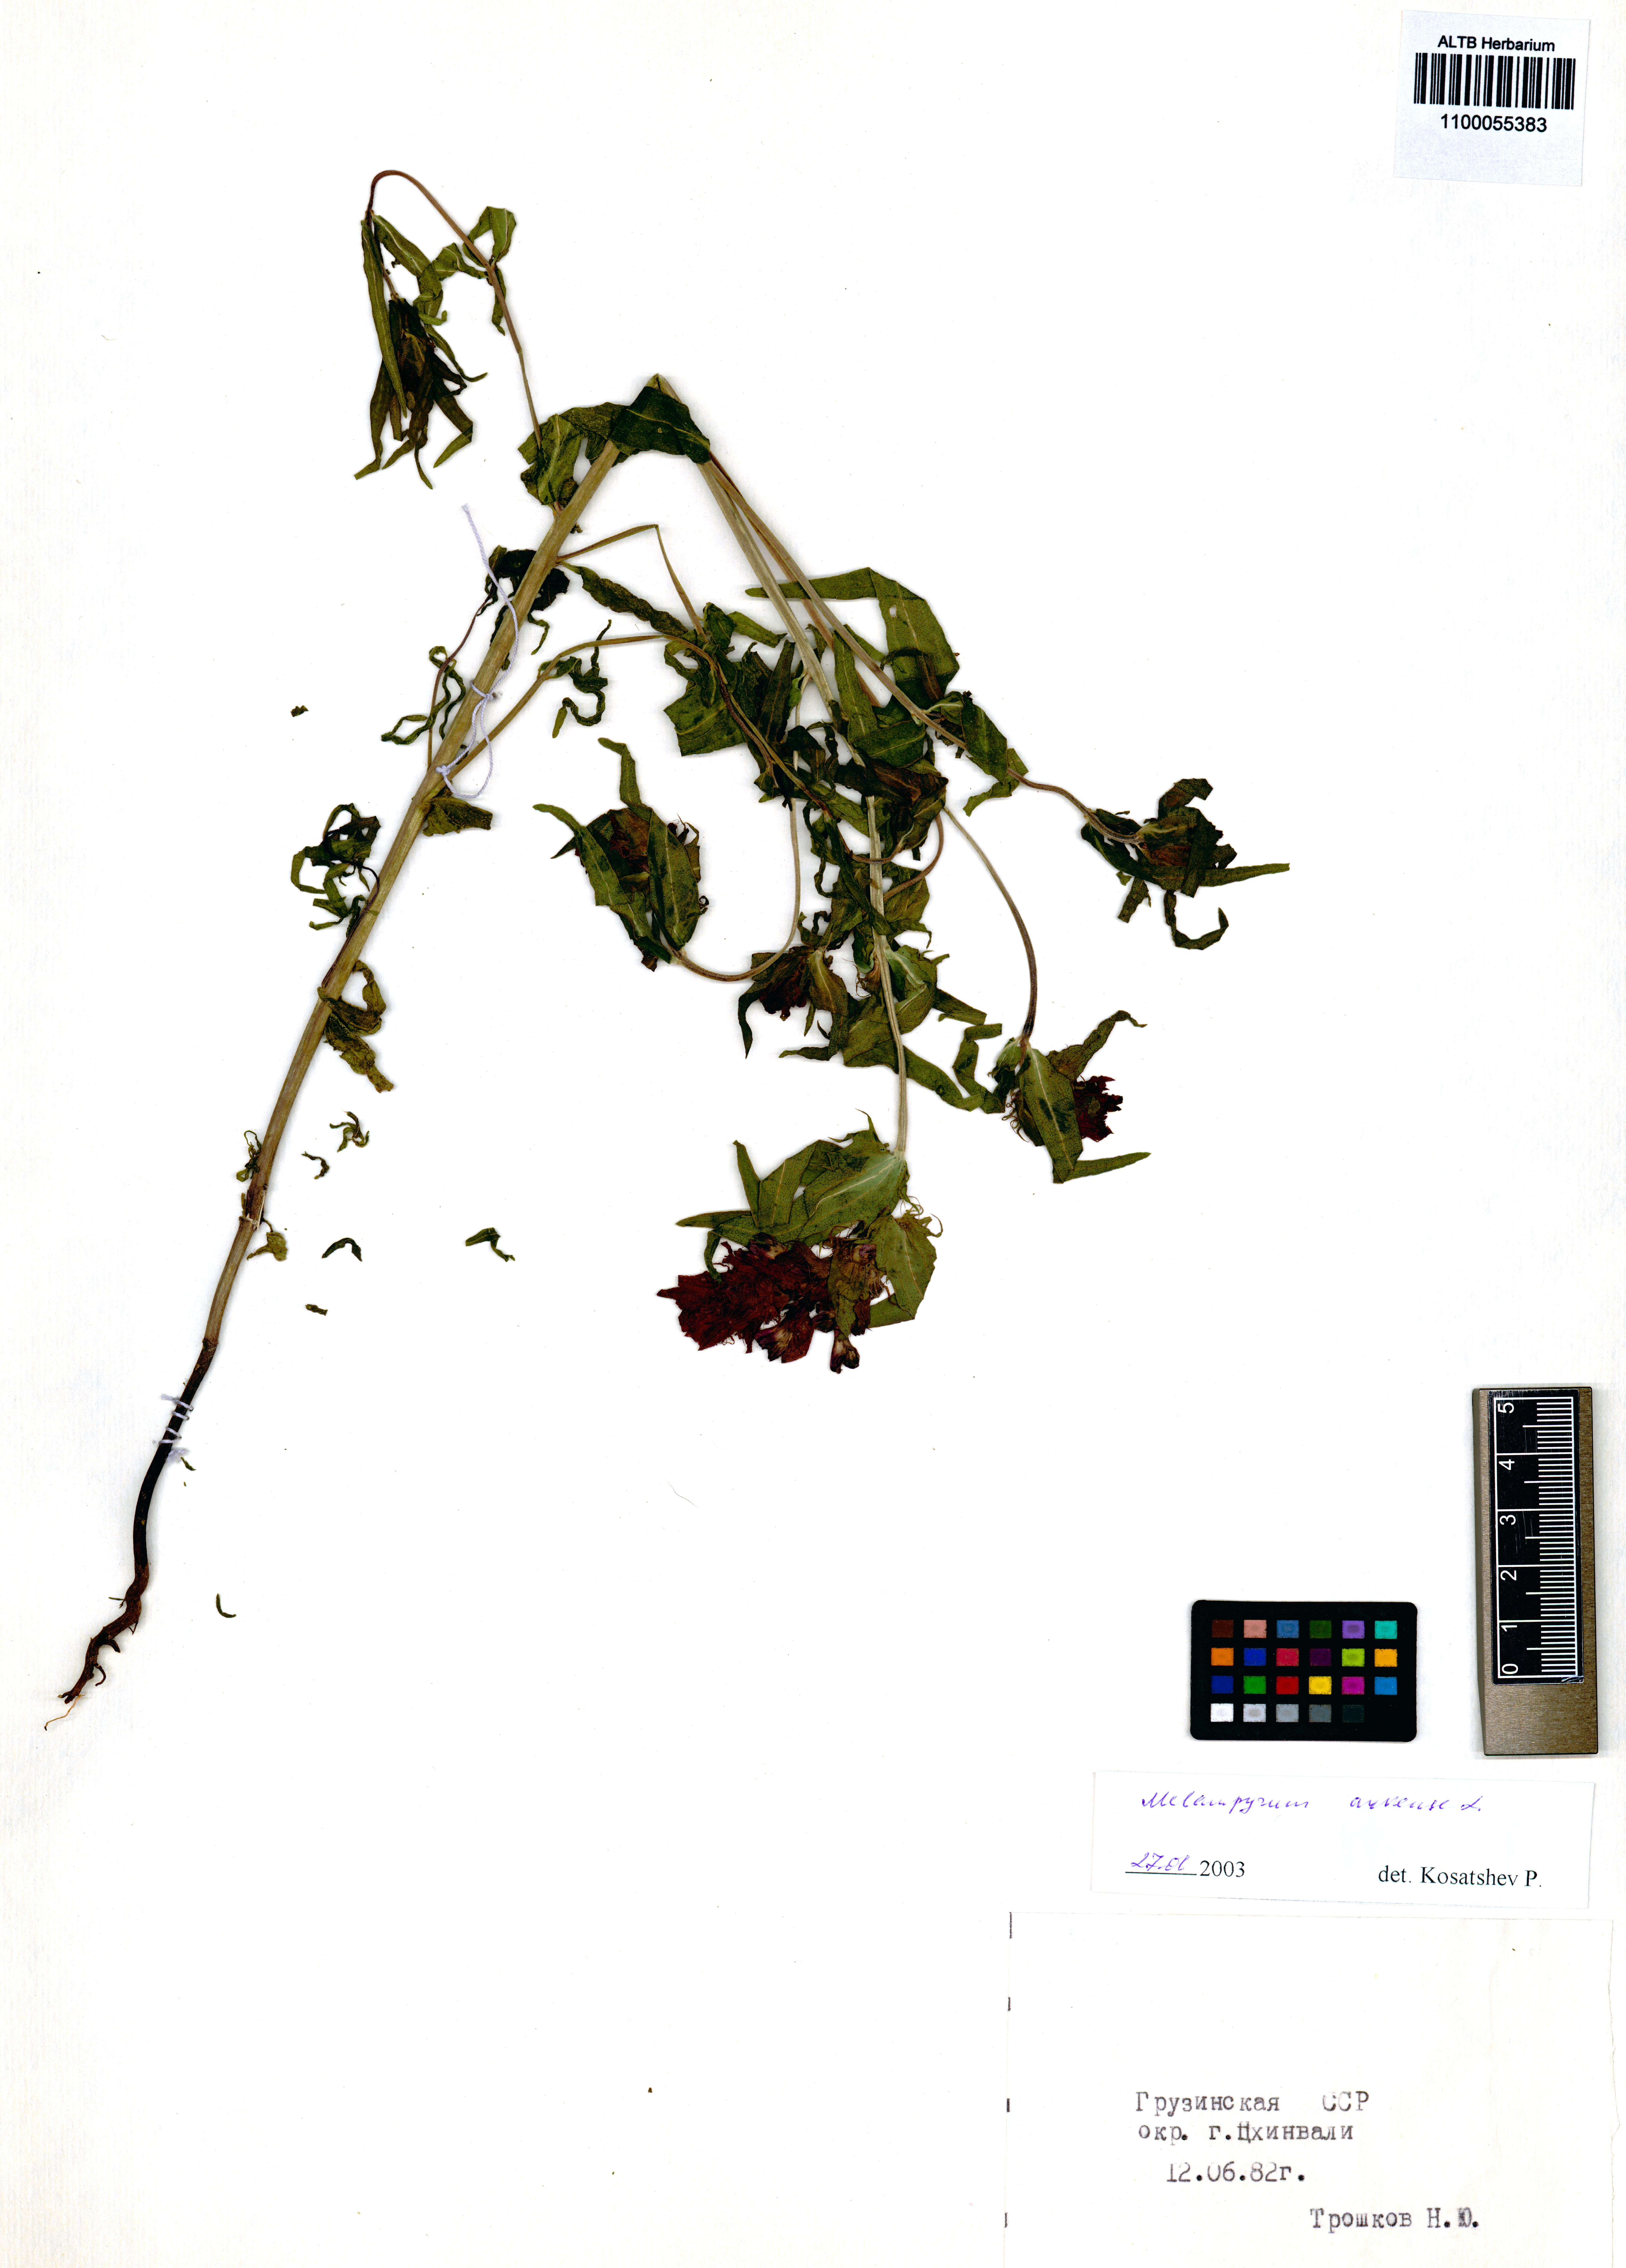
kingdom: Plantae
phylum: Tracheophyta
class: Magnoliopsida
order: Lamiales
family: Orobanchaceae
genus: Melampyrum
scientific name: Melampyrum arvense
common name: Field cow-wheat
